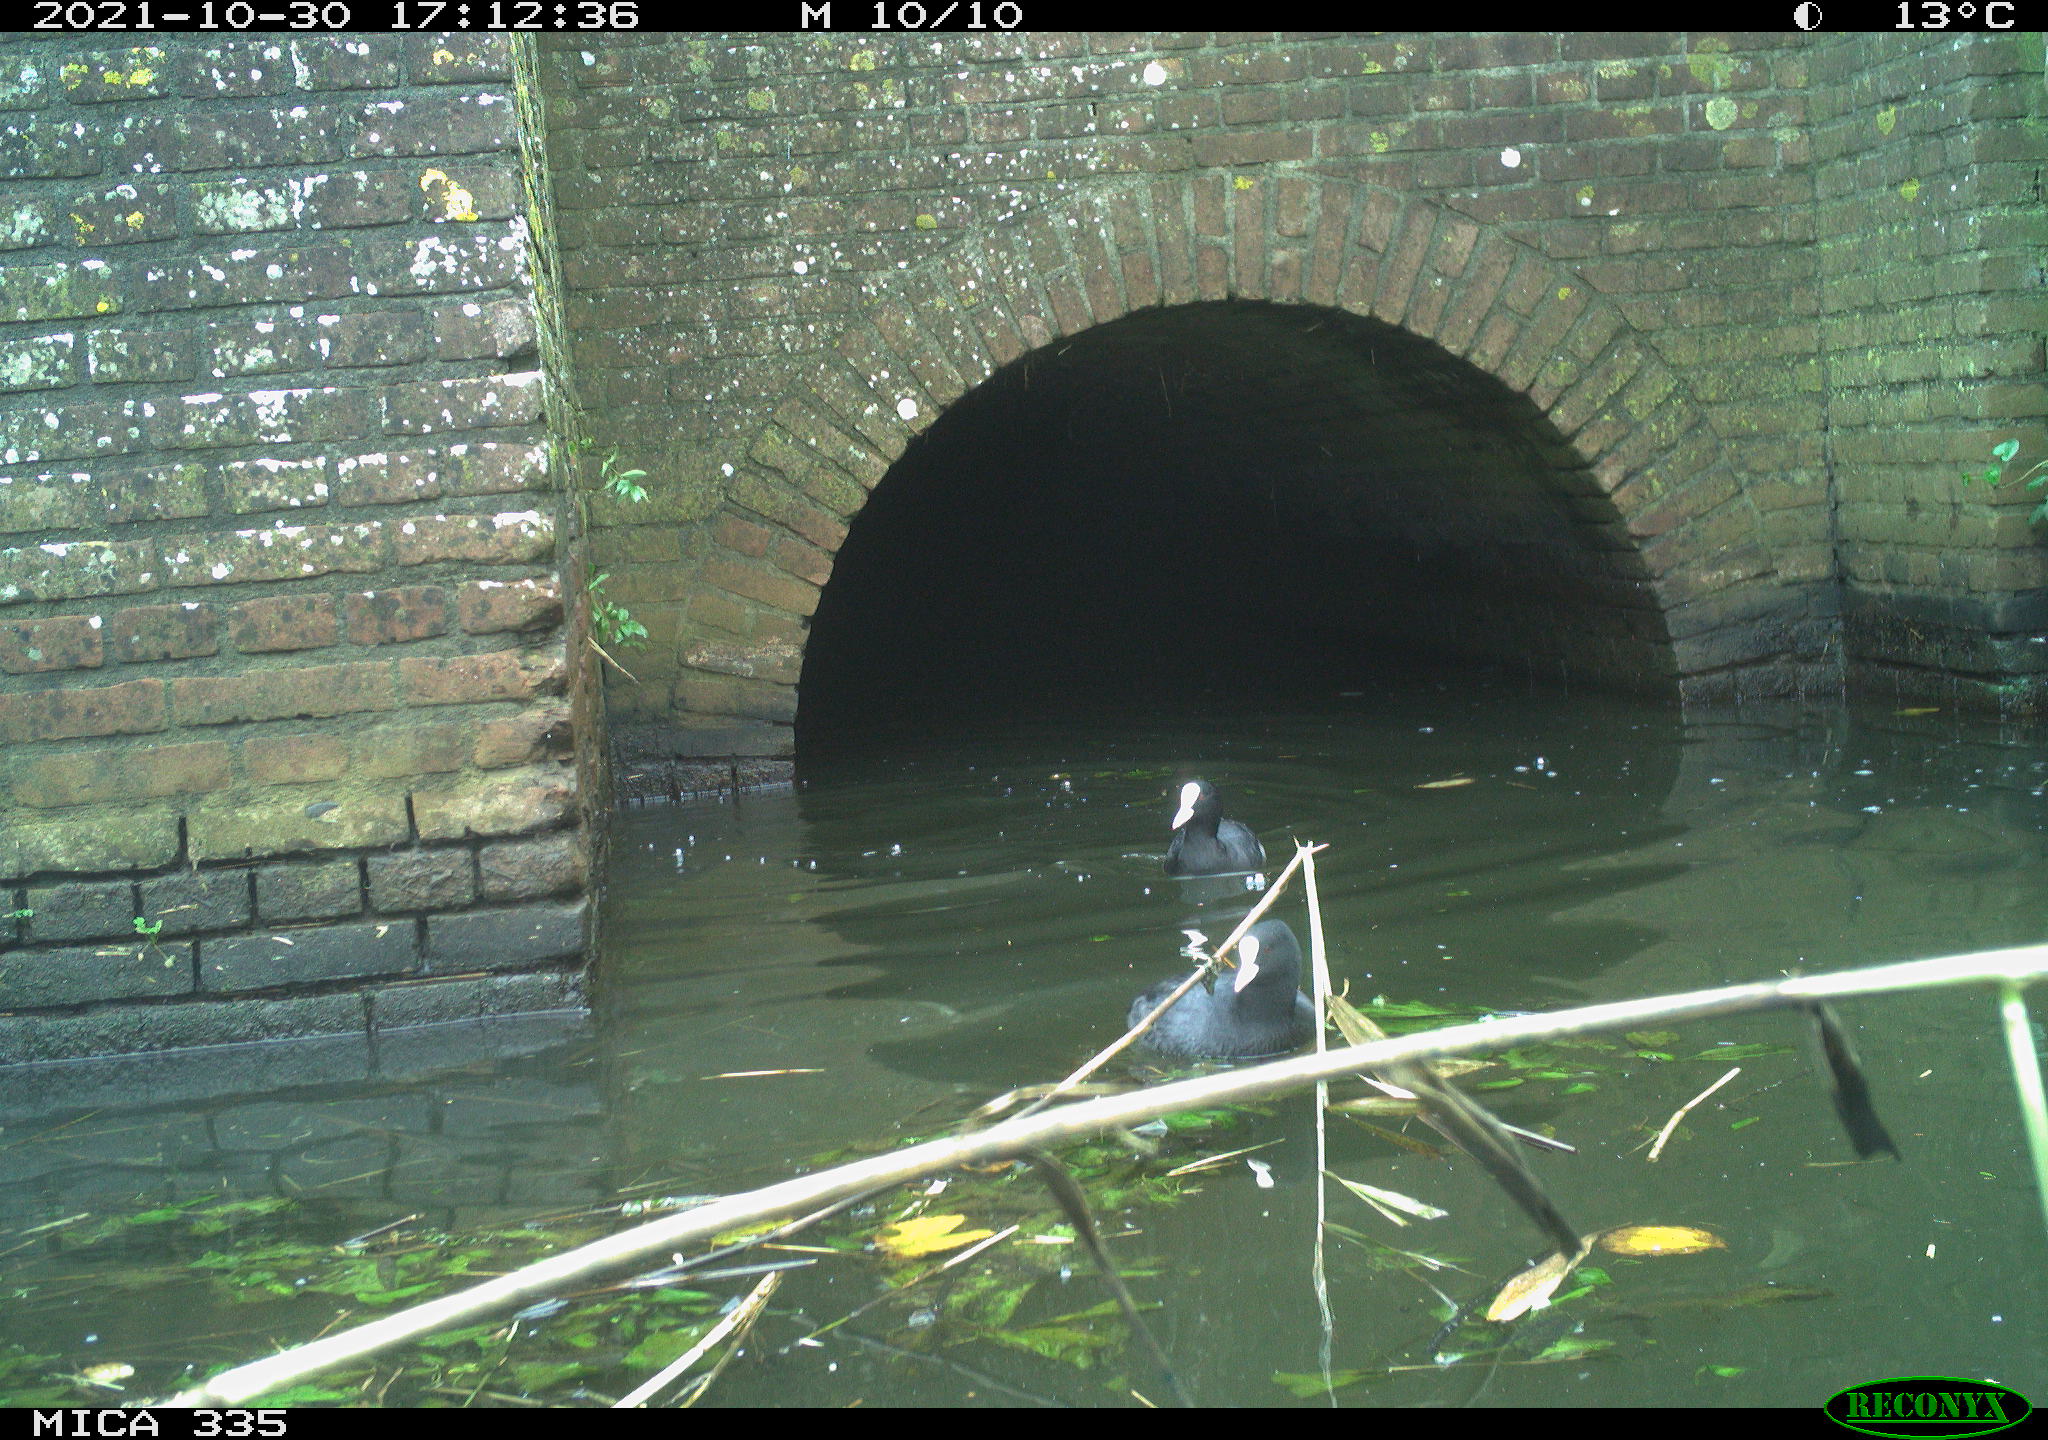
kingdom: Animalia
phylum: Chordata
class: Aves
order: Gruiformes
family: Rallidae
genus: Fulica
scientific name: Fulica atra
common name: Eurasian coot
